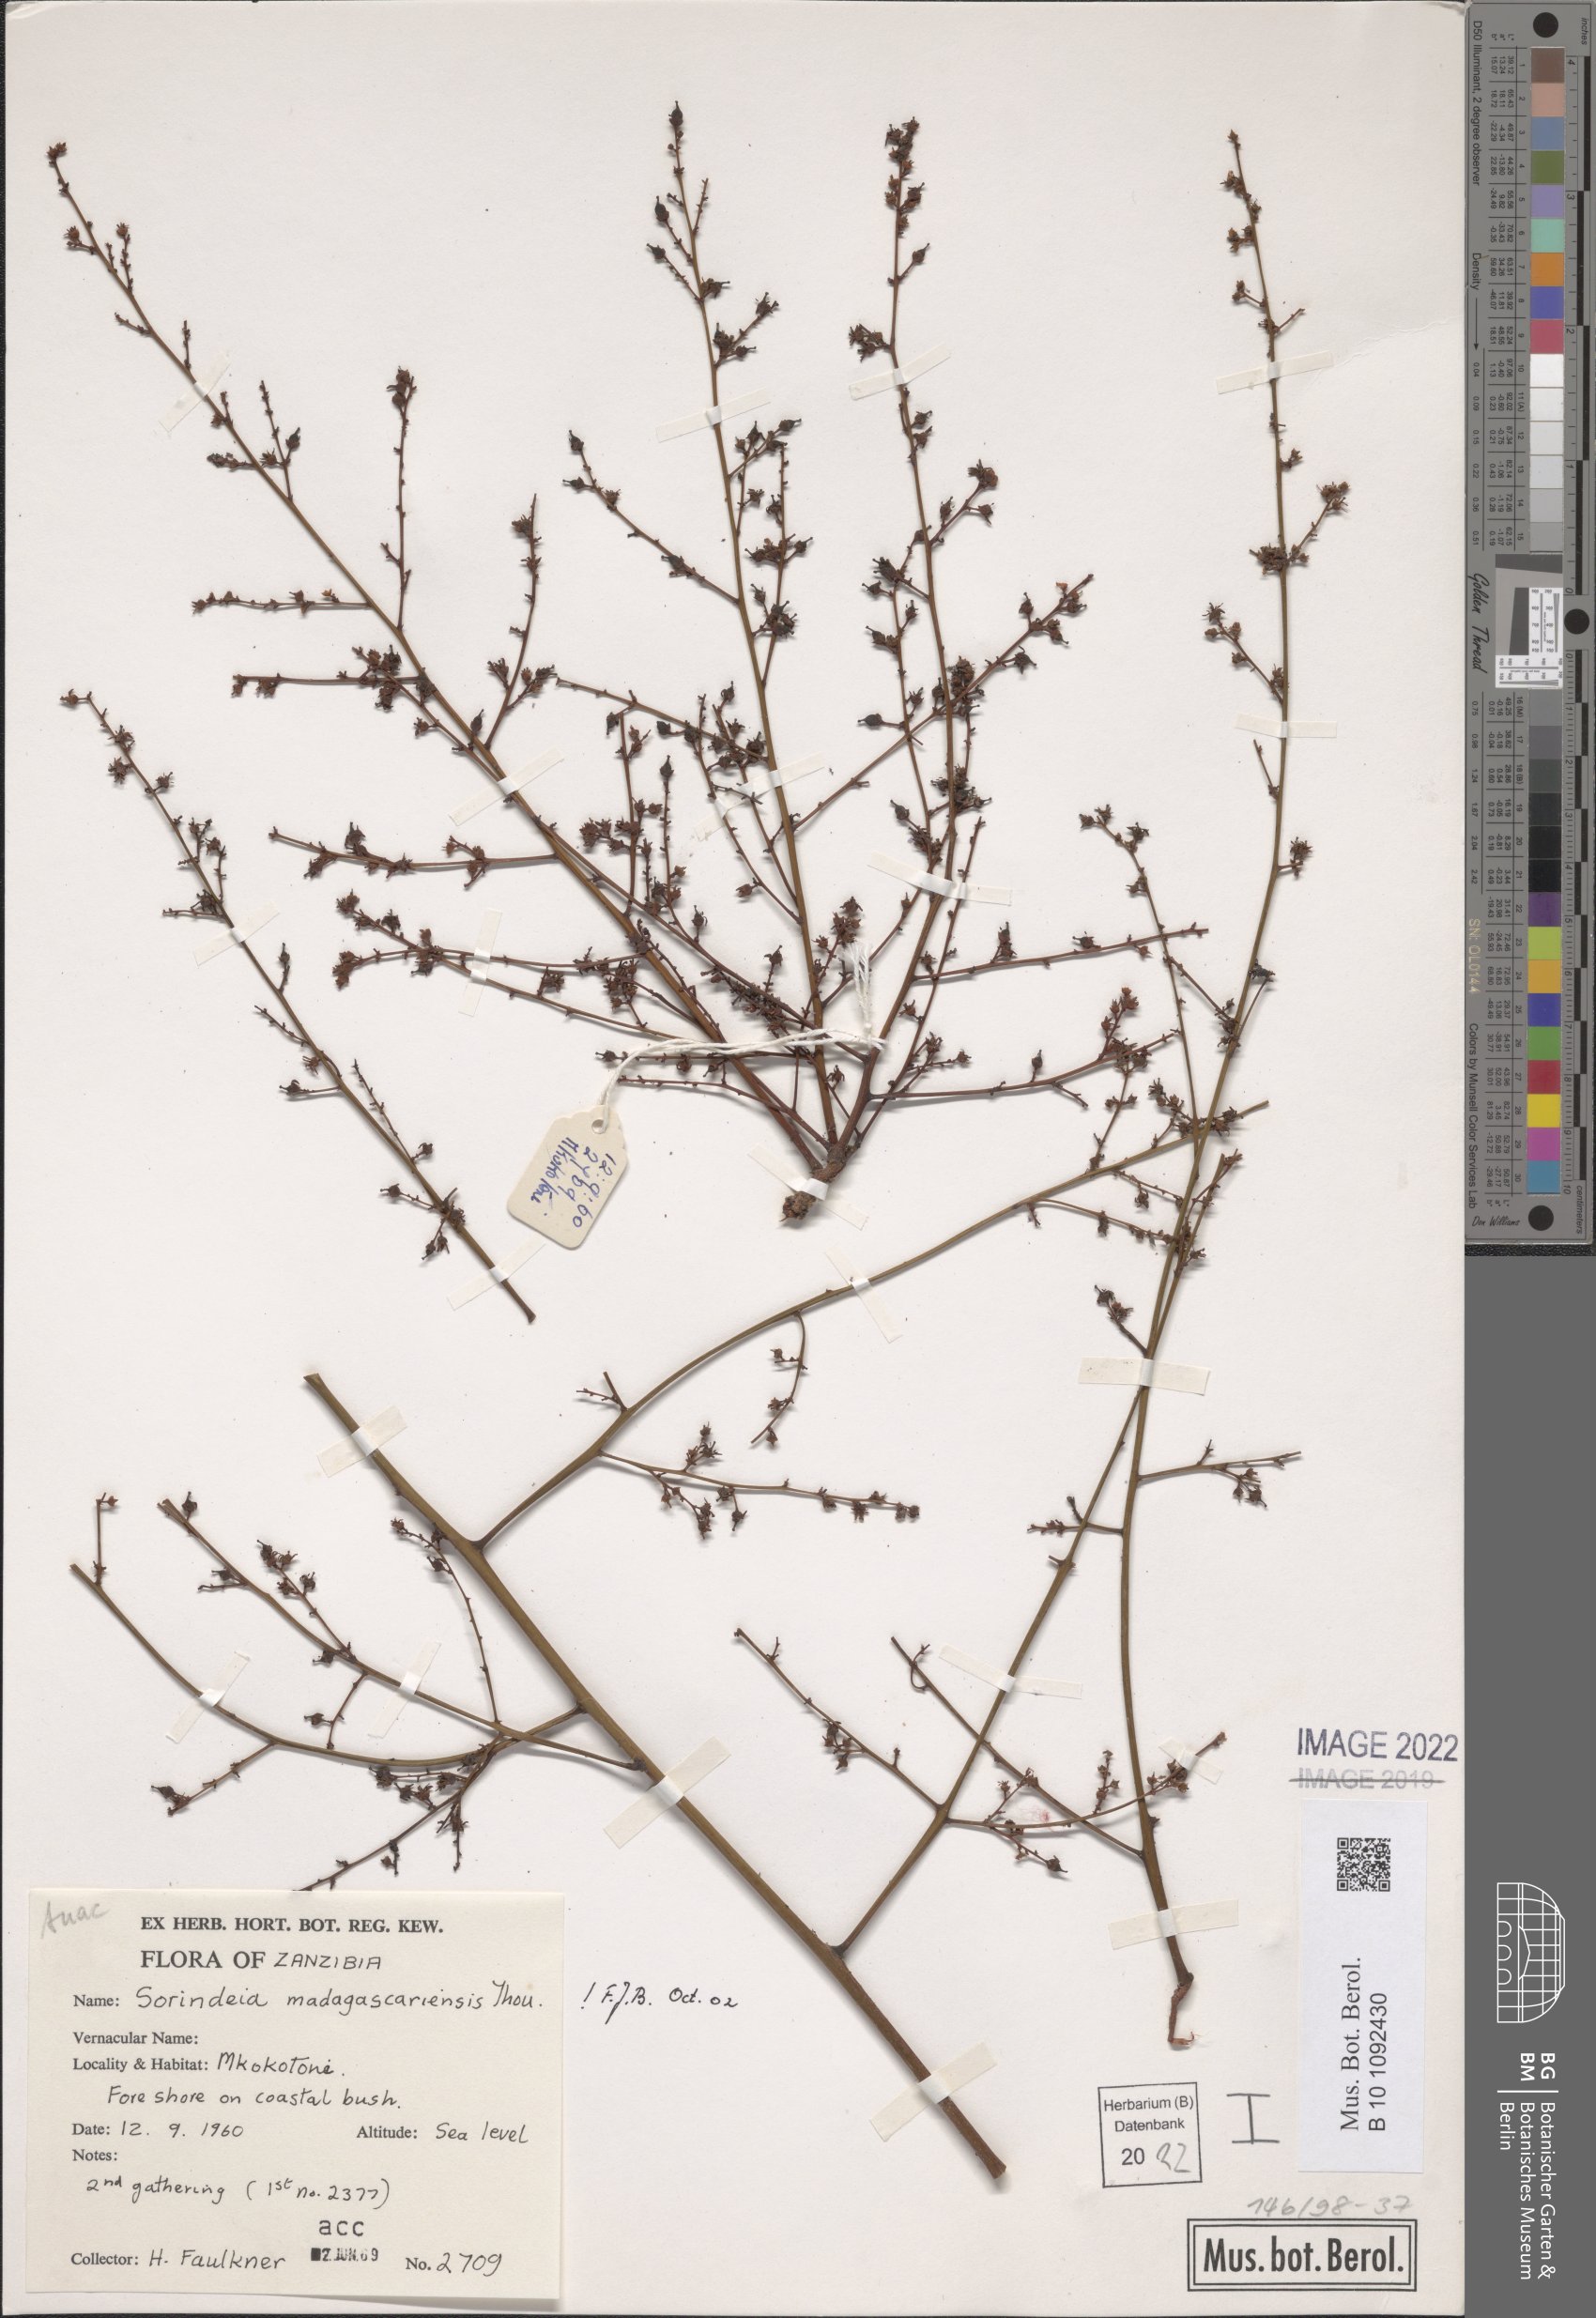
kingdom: Plantae
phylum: Tracheophyta
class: Magnoliopsida
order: Sapindales
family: Anacardiaceae
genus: Sorindeia
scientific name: Sorindeia madagascariensis
